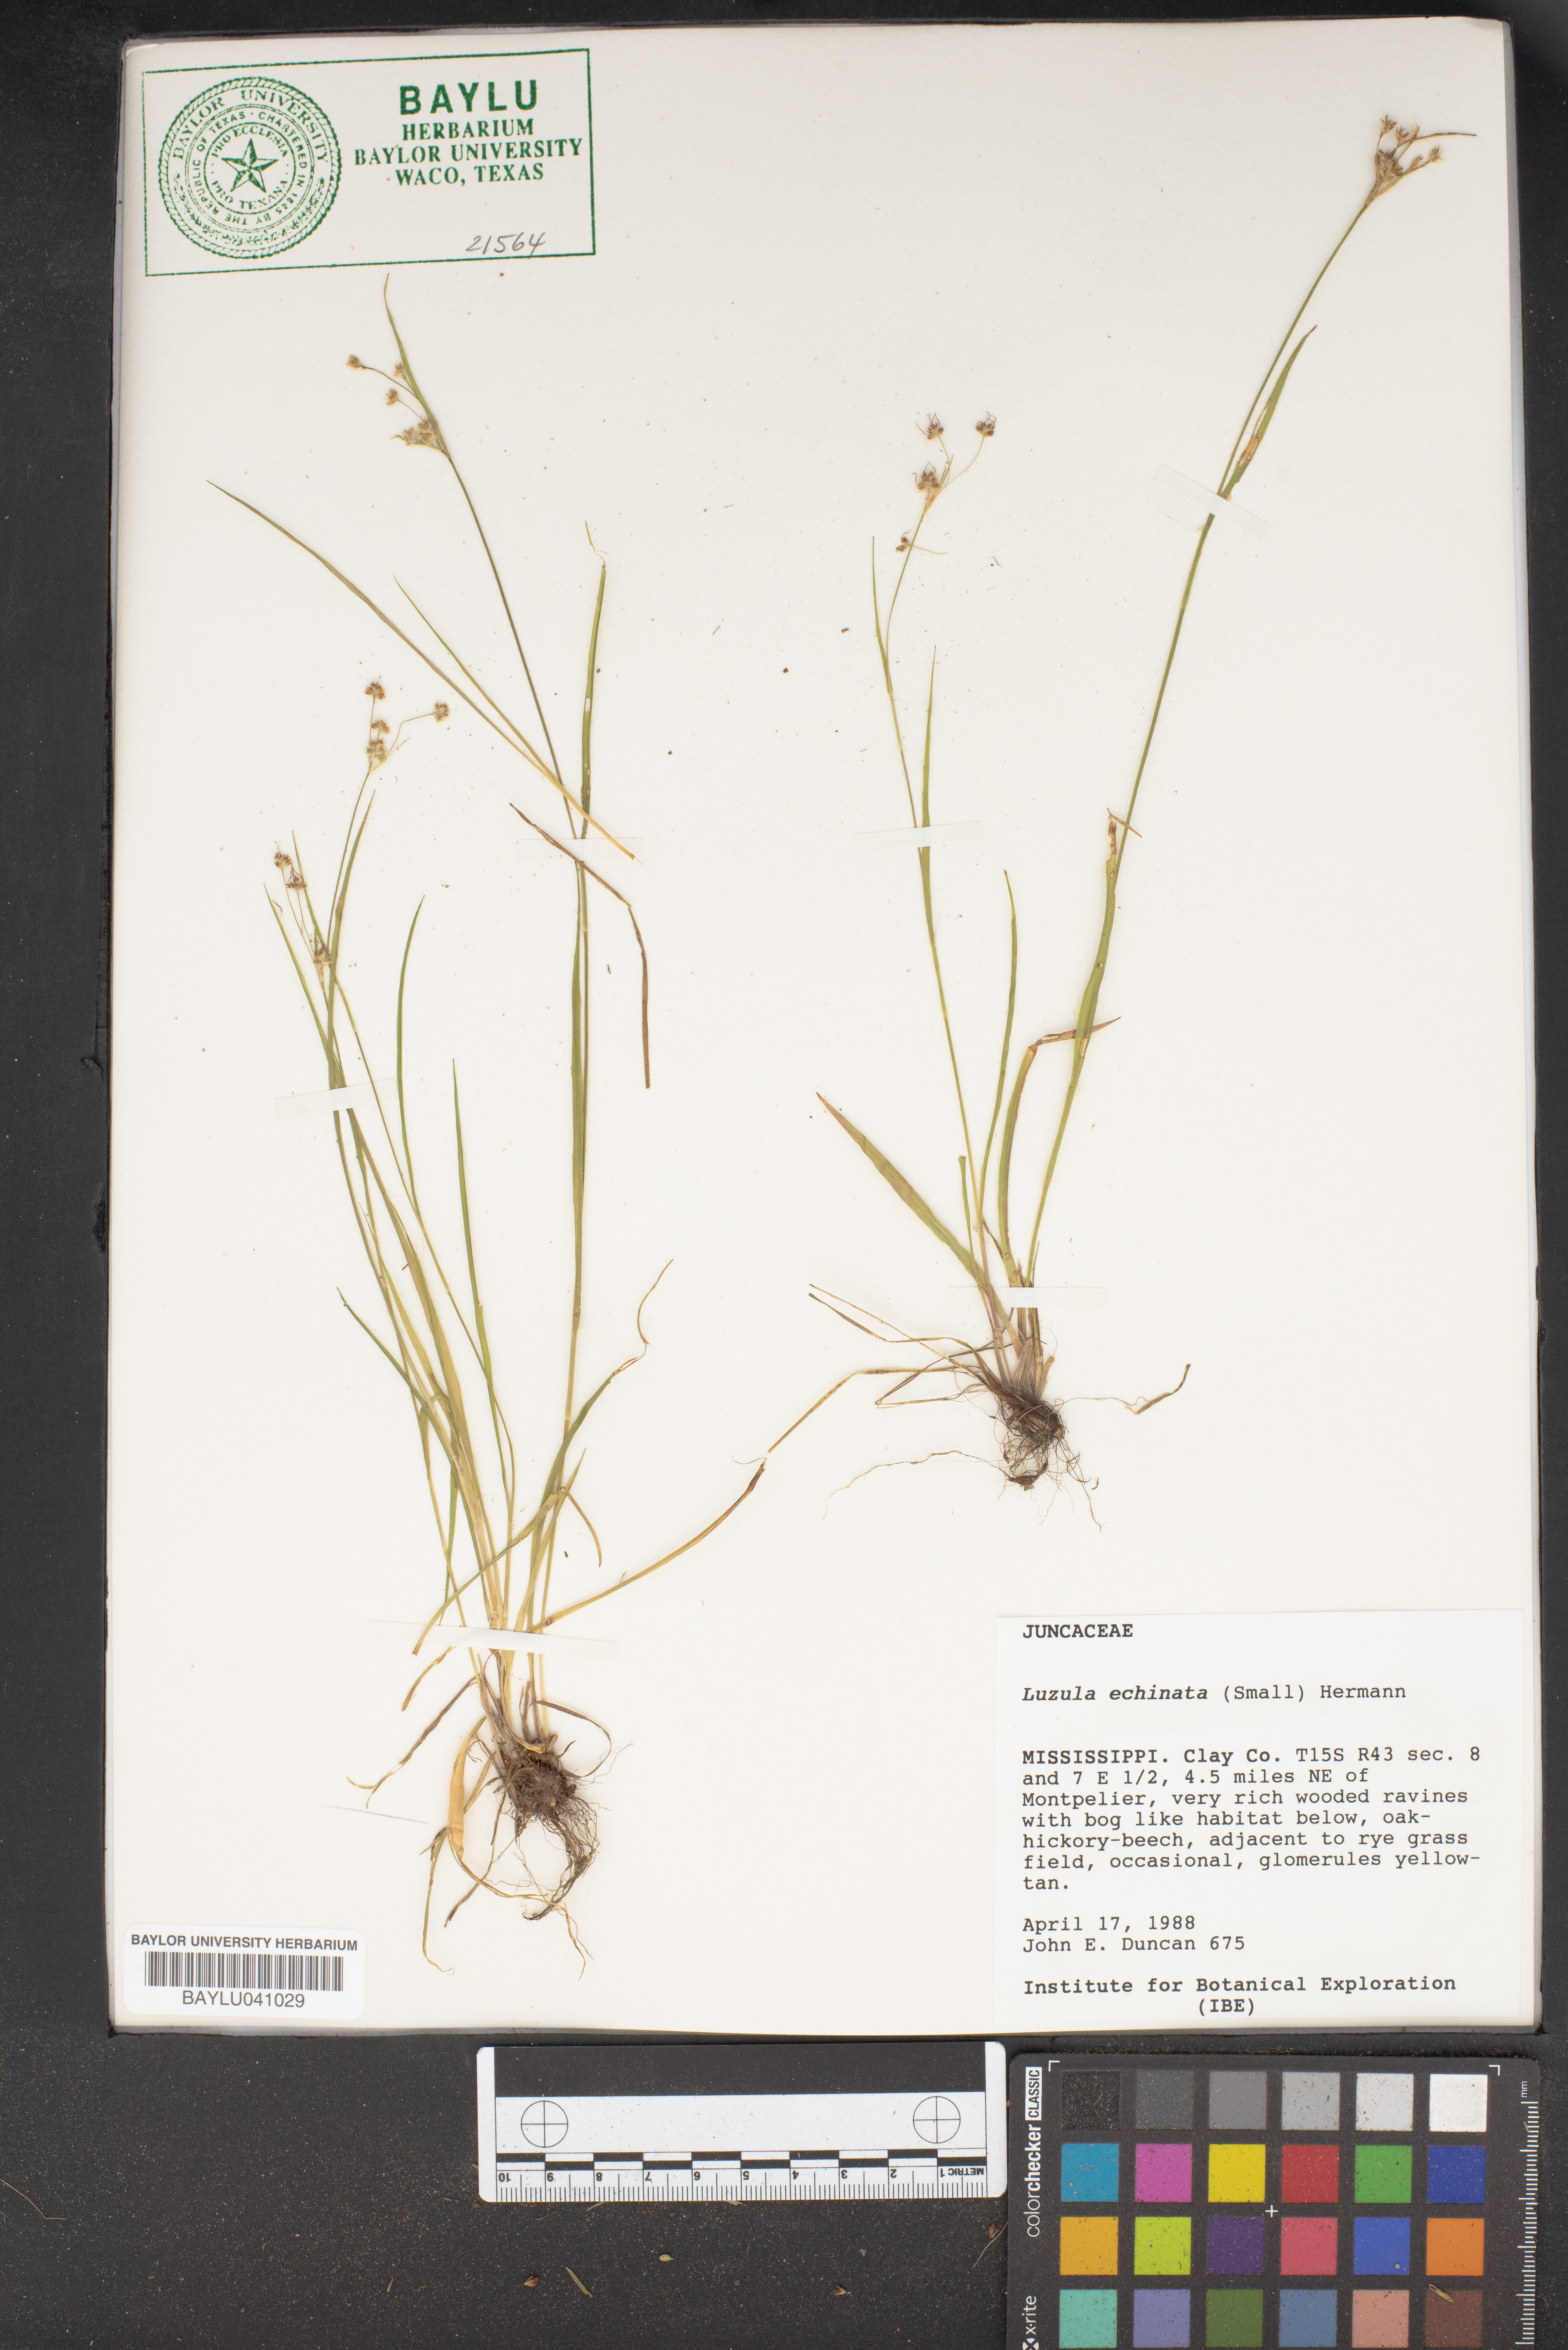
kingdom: Plantae
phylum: Tracheophyta
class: Liliopsida
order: Poales
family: Juncaceae
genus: Luzula
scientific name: Luzula echinata
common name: Hedgehog woodrush
